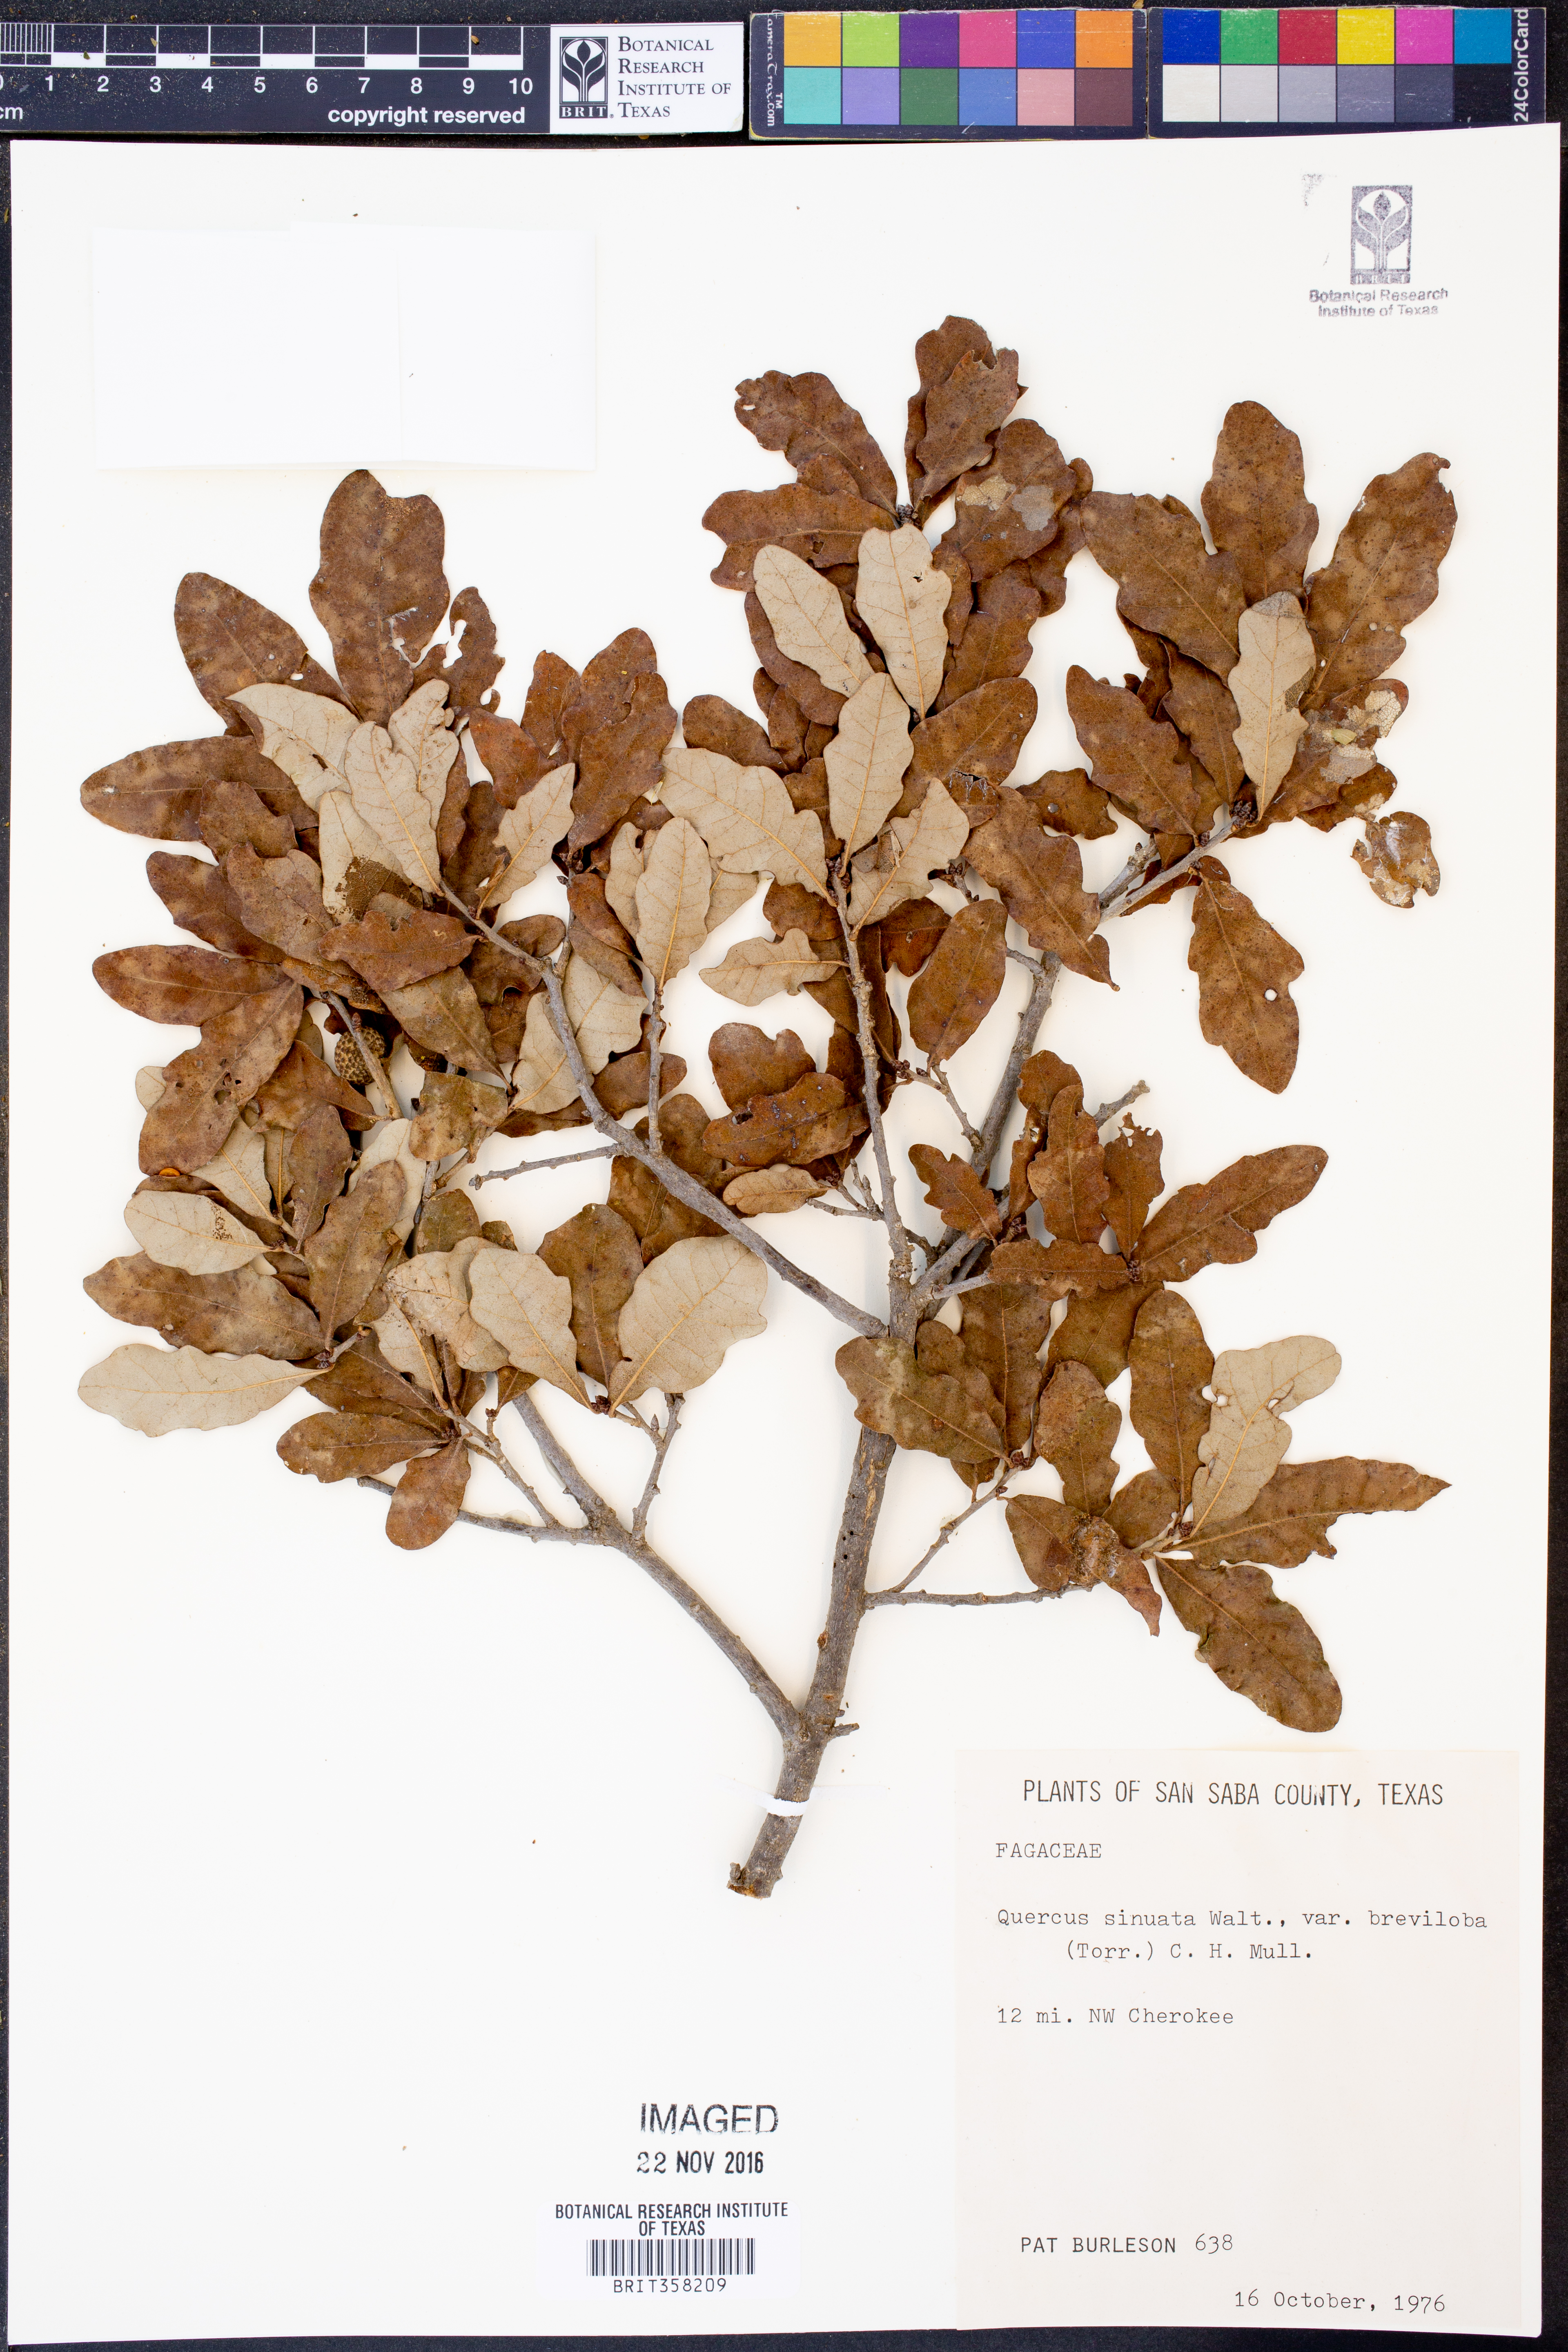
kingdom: Plantae
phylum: Tracheophyta
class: Magnoliopsida
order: Fagales
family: Fagaceae
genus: Quercus
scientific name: Quercus sinuata
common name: Durand oak
